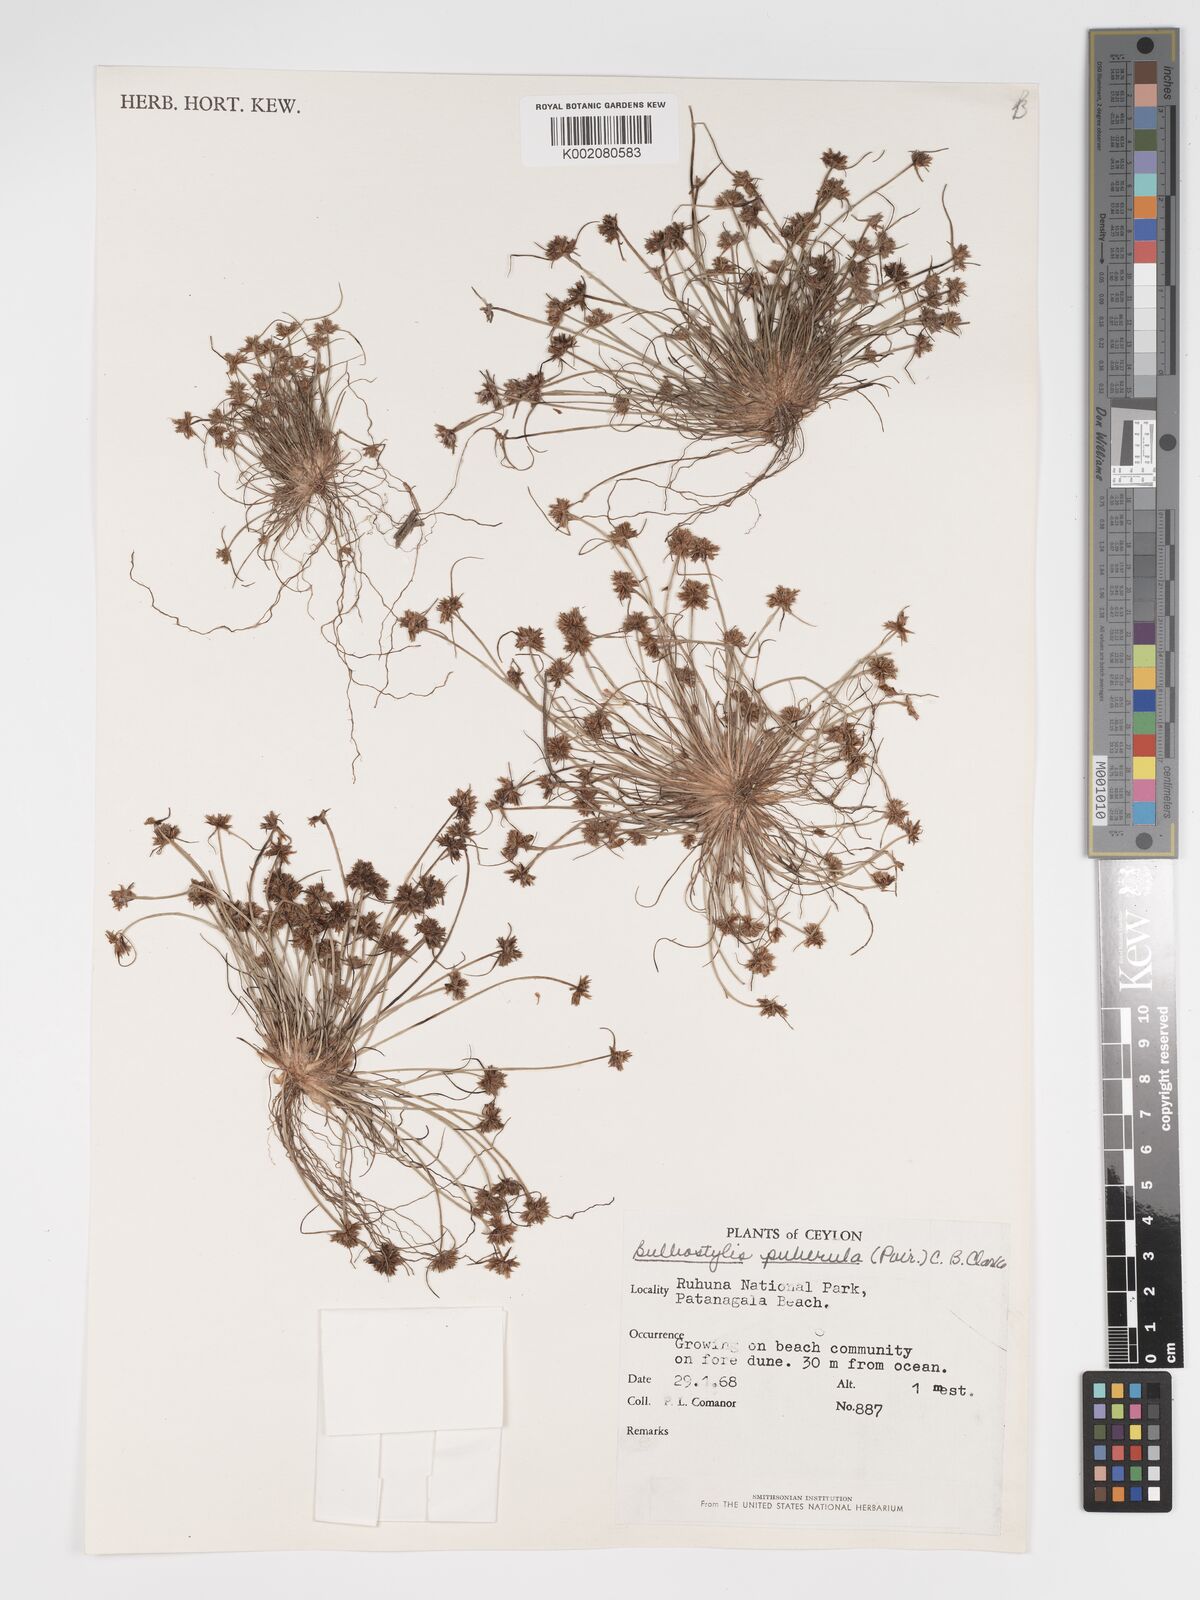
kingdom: Plantae
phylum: Tracheophyta
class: Magnoliopsida
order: Asterales
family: Asteraceae
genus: Bulbostylis
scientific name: Bulbostylis
